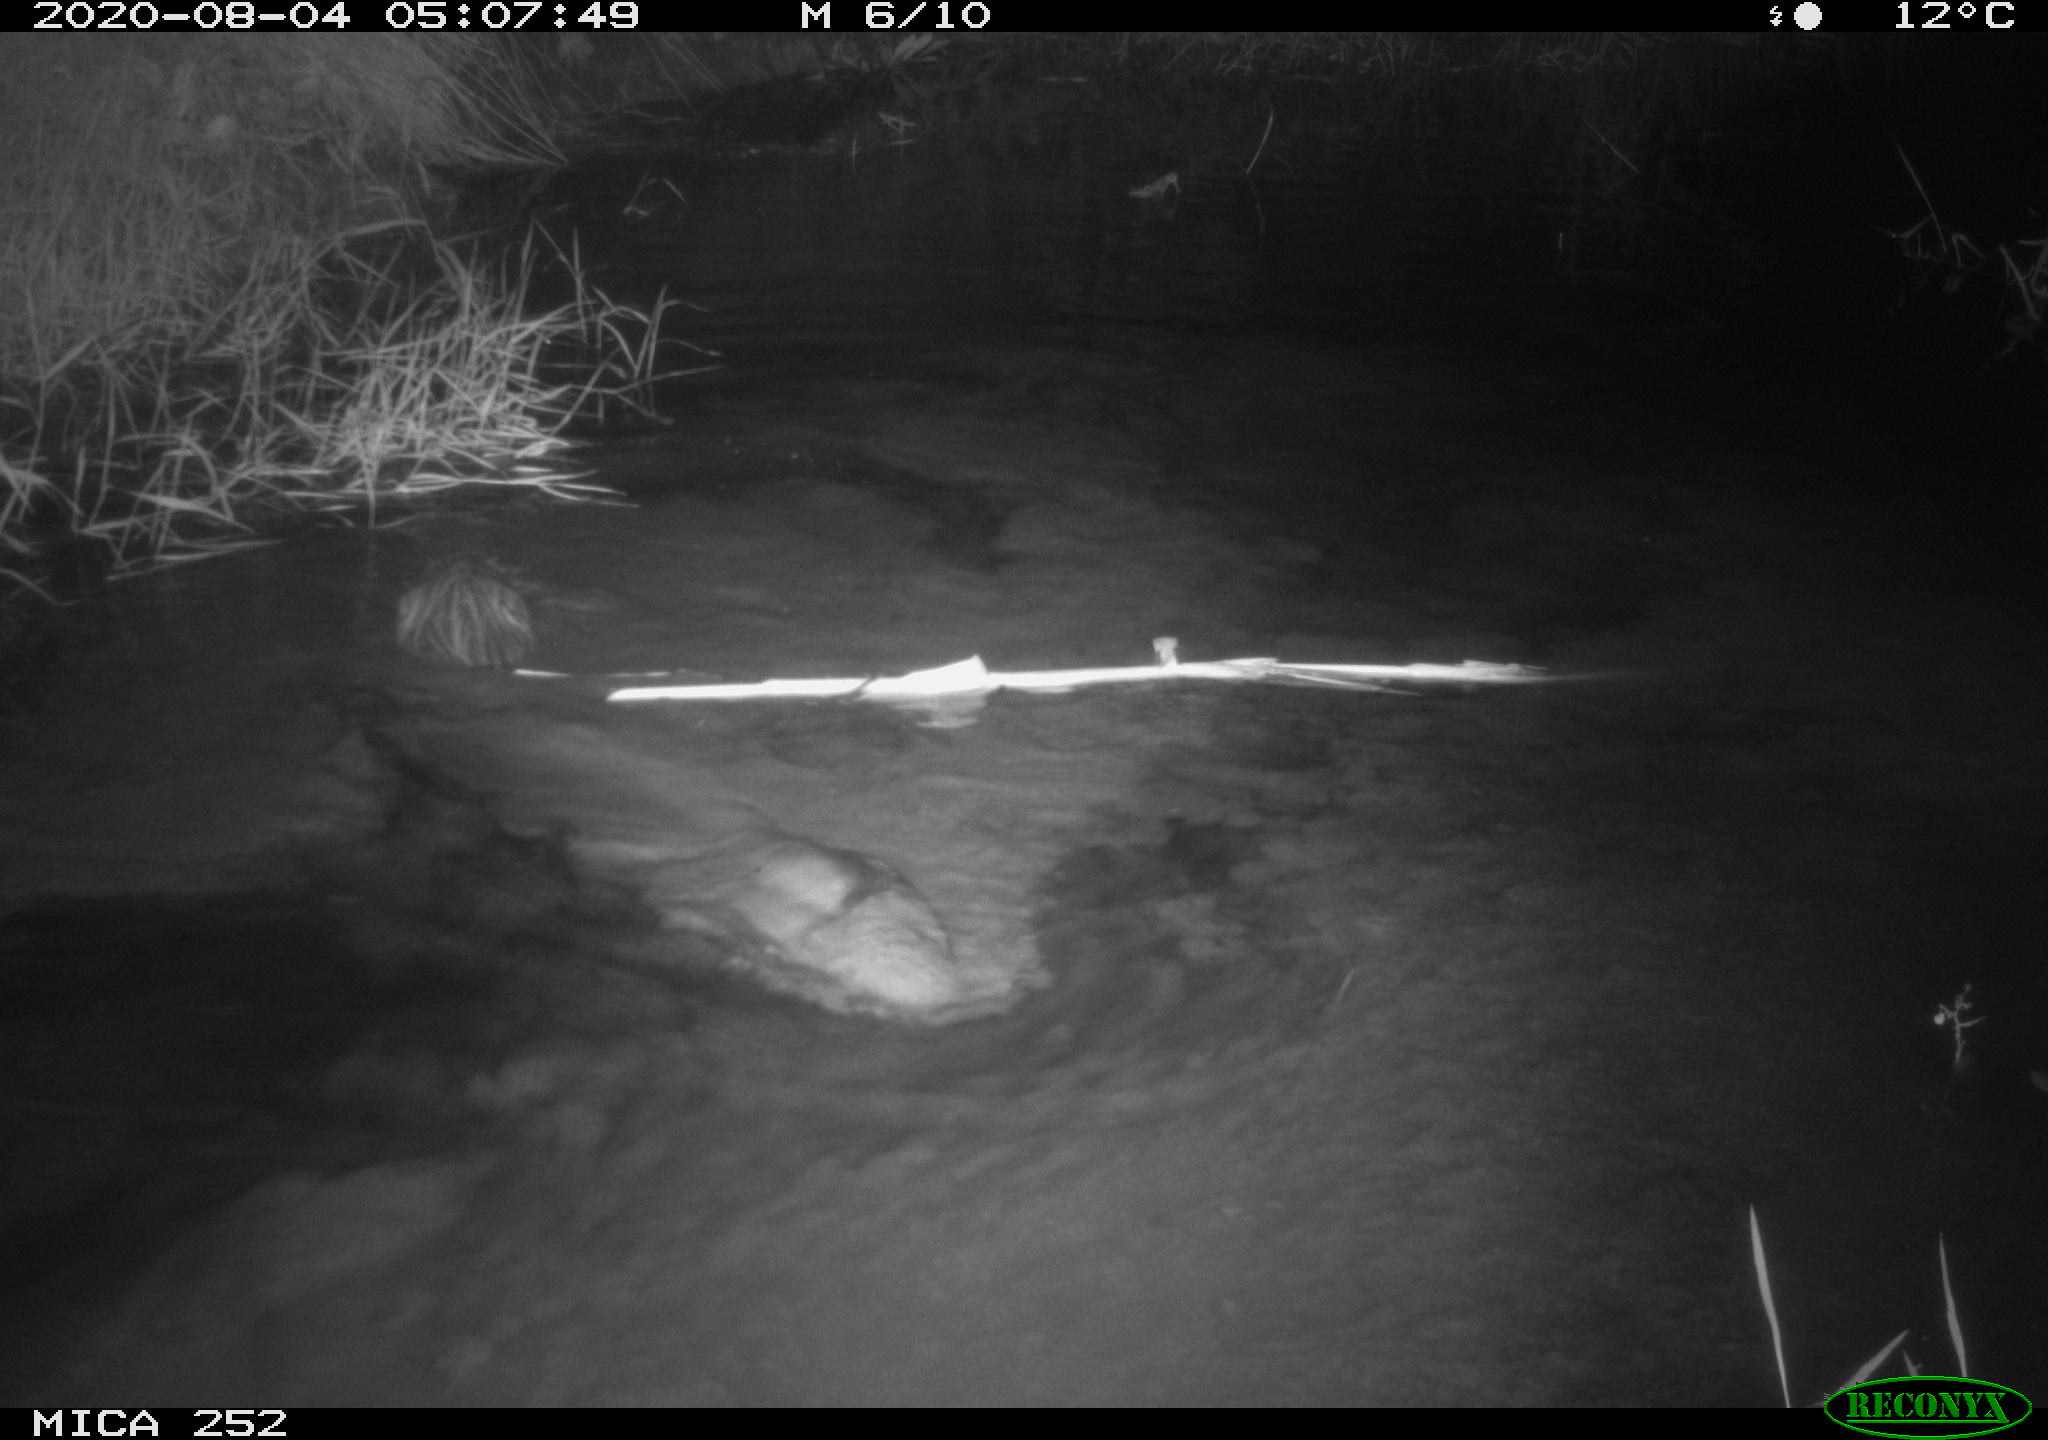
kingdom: Animalia
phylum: Chordata
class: Mammalia
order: Rodentia
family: Castoridae
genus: Castor
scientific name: Castor fiber
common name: Eurasian beaver
